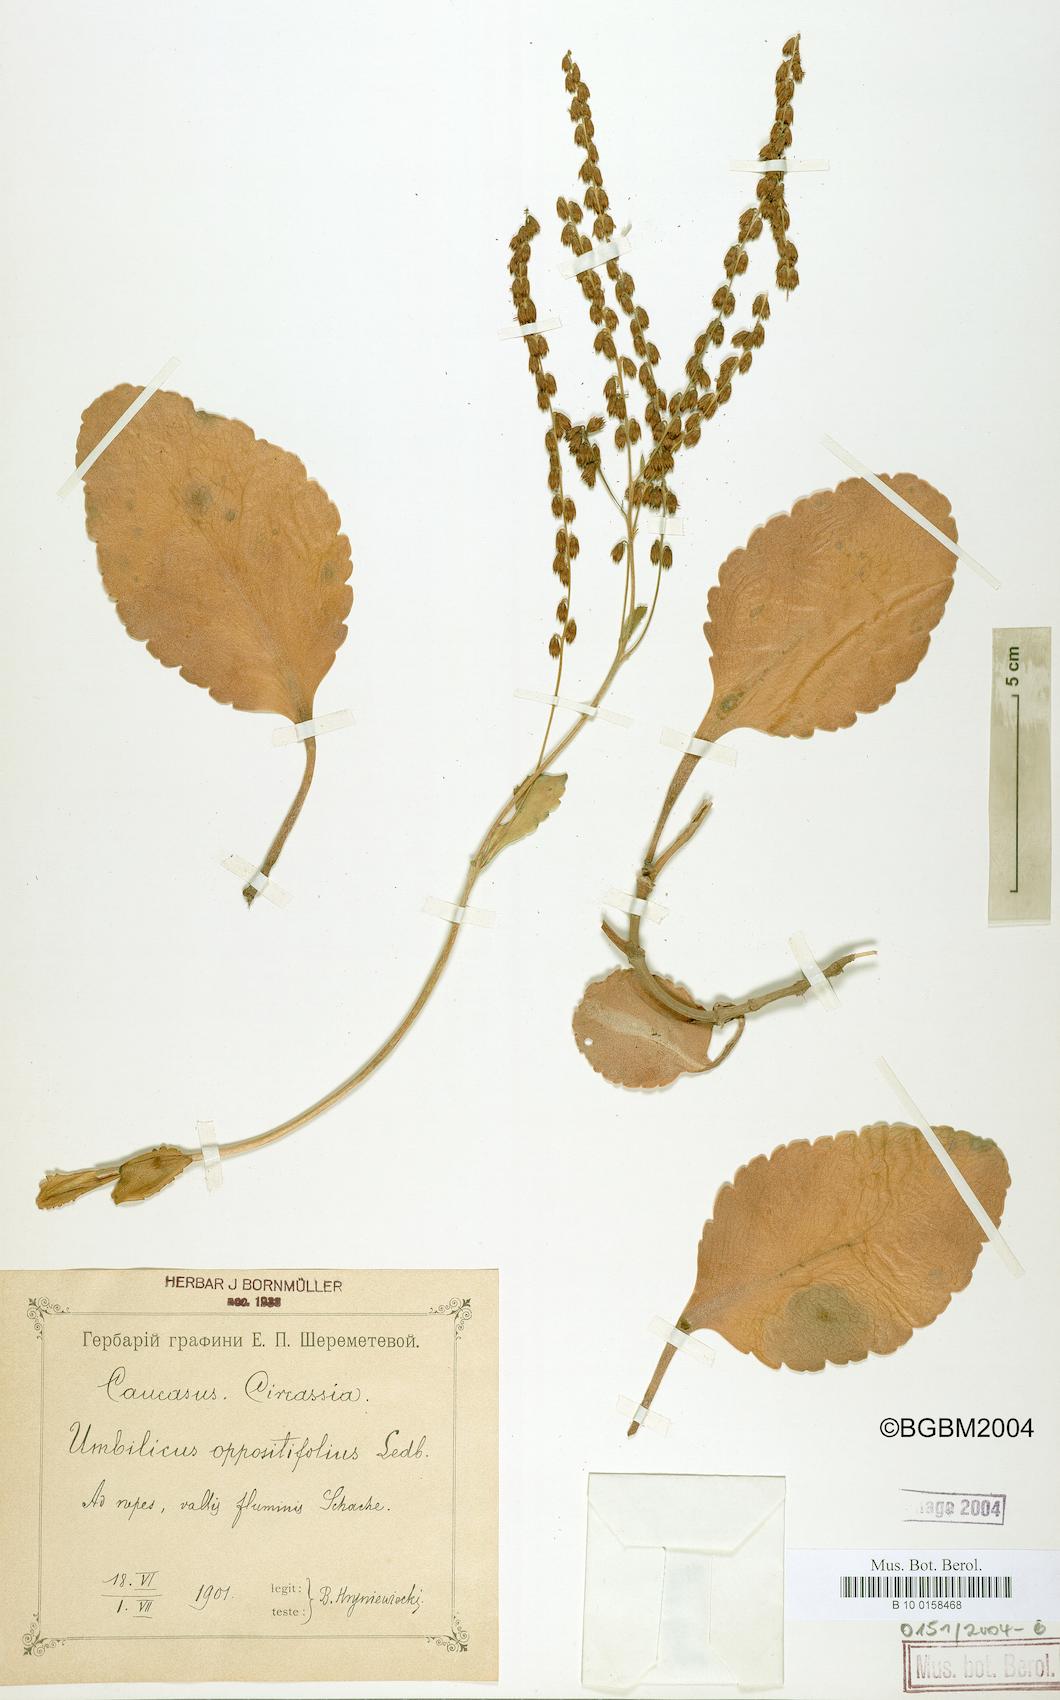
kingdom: Plantae
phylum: Tracheophyta
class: Magnoliopsida
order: Saxifragales
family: Crassulaceae
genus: Umbilicus
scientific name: Umbilicus oppositifolius
